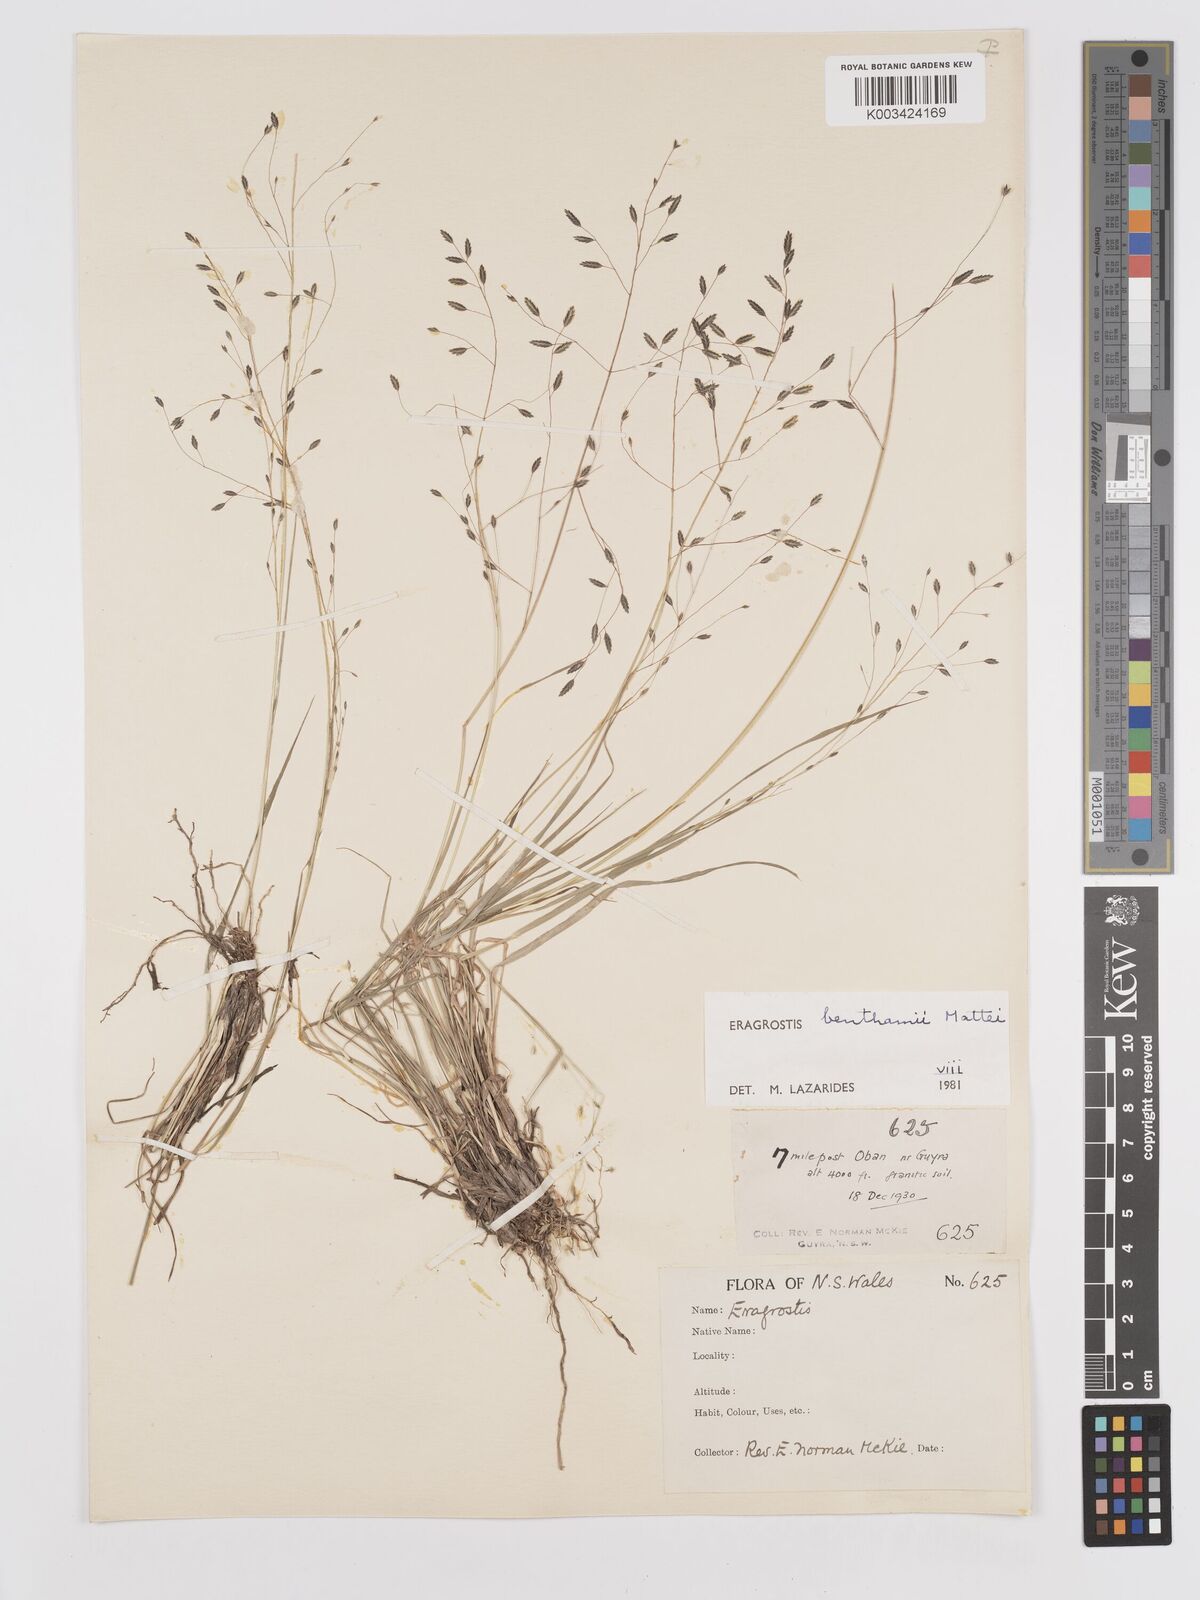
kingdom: Plantae
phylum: Tracheophyta
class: Liliopsida
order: Poales
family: Poaceae
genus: Eragrostis
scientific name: Eragrostis brownii
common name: Lovegrass
